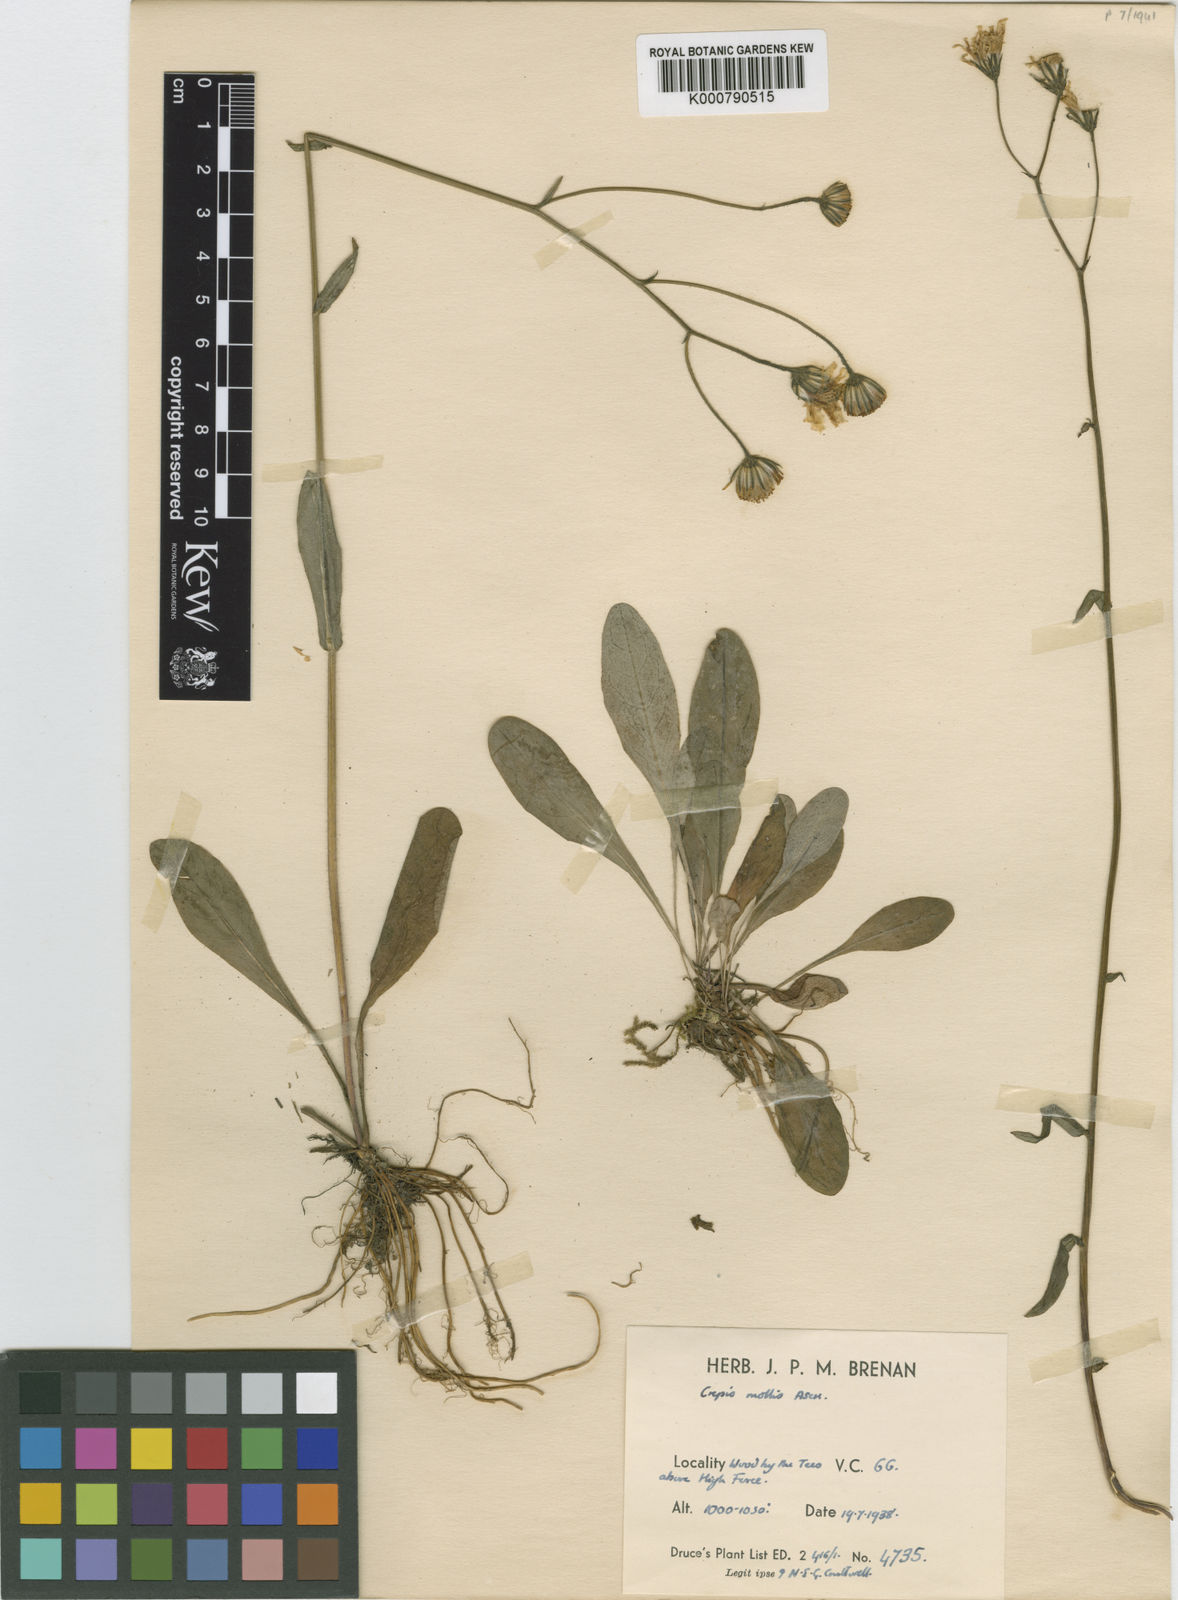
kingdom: Plantae
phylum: Tracheophyta
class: Magnoliopsida
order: Asterales
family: Asteraceae
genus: Crepis
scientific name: Crepis mollis
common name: Northern hawk's-beard
